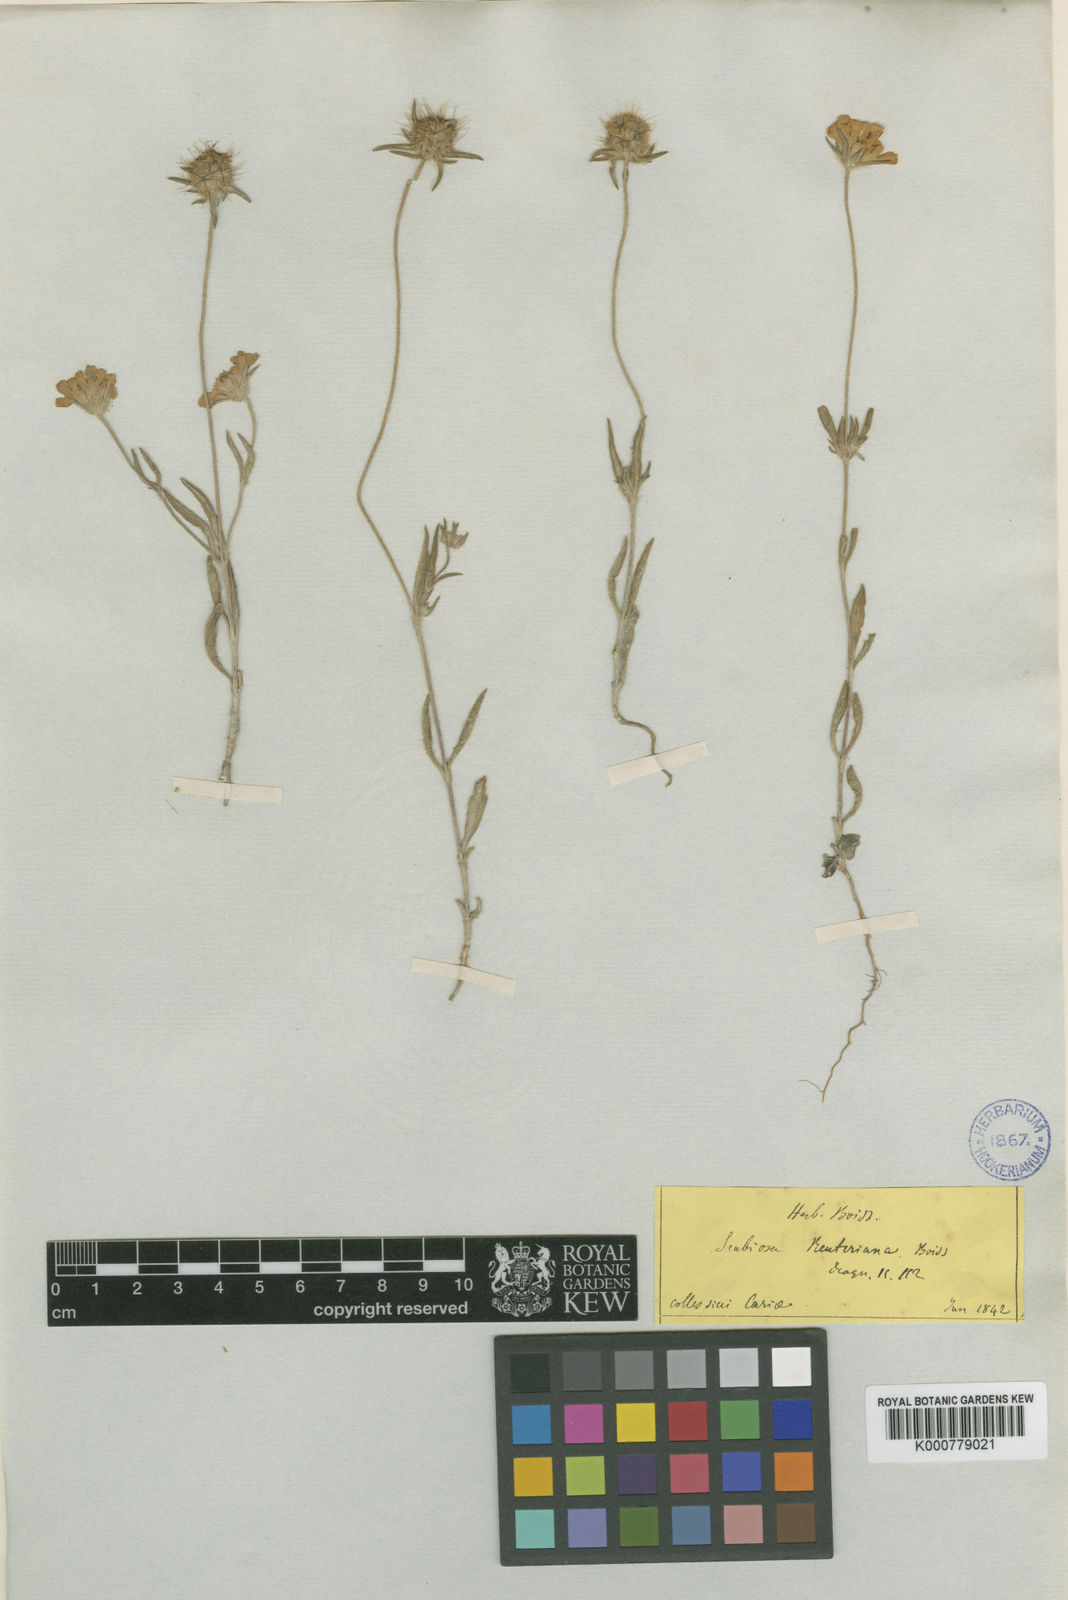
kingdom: Plantae
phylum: Tracheophyta
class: Magnoliopsida
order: Dipsacales
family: Caprifoliaceae
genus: Lomelosia
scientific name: Lomelosia reuteriana
